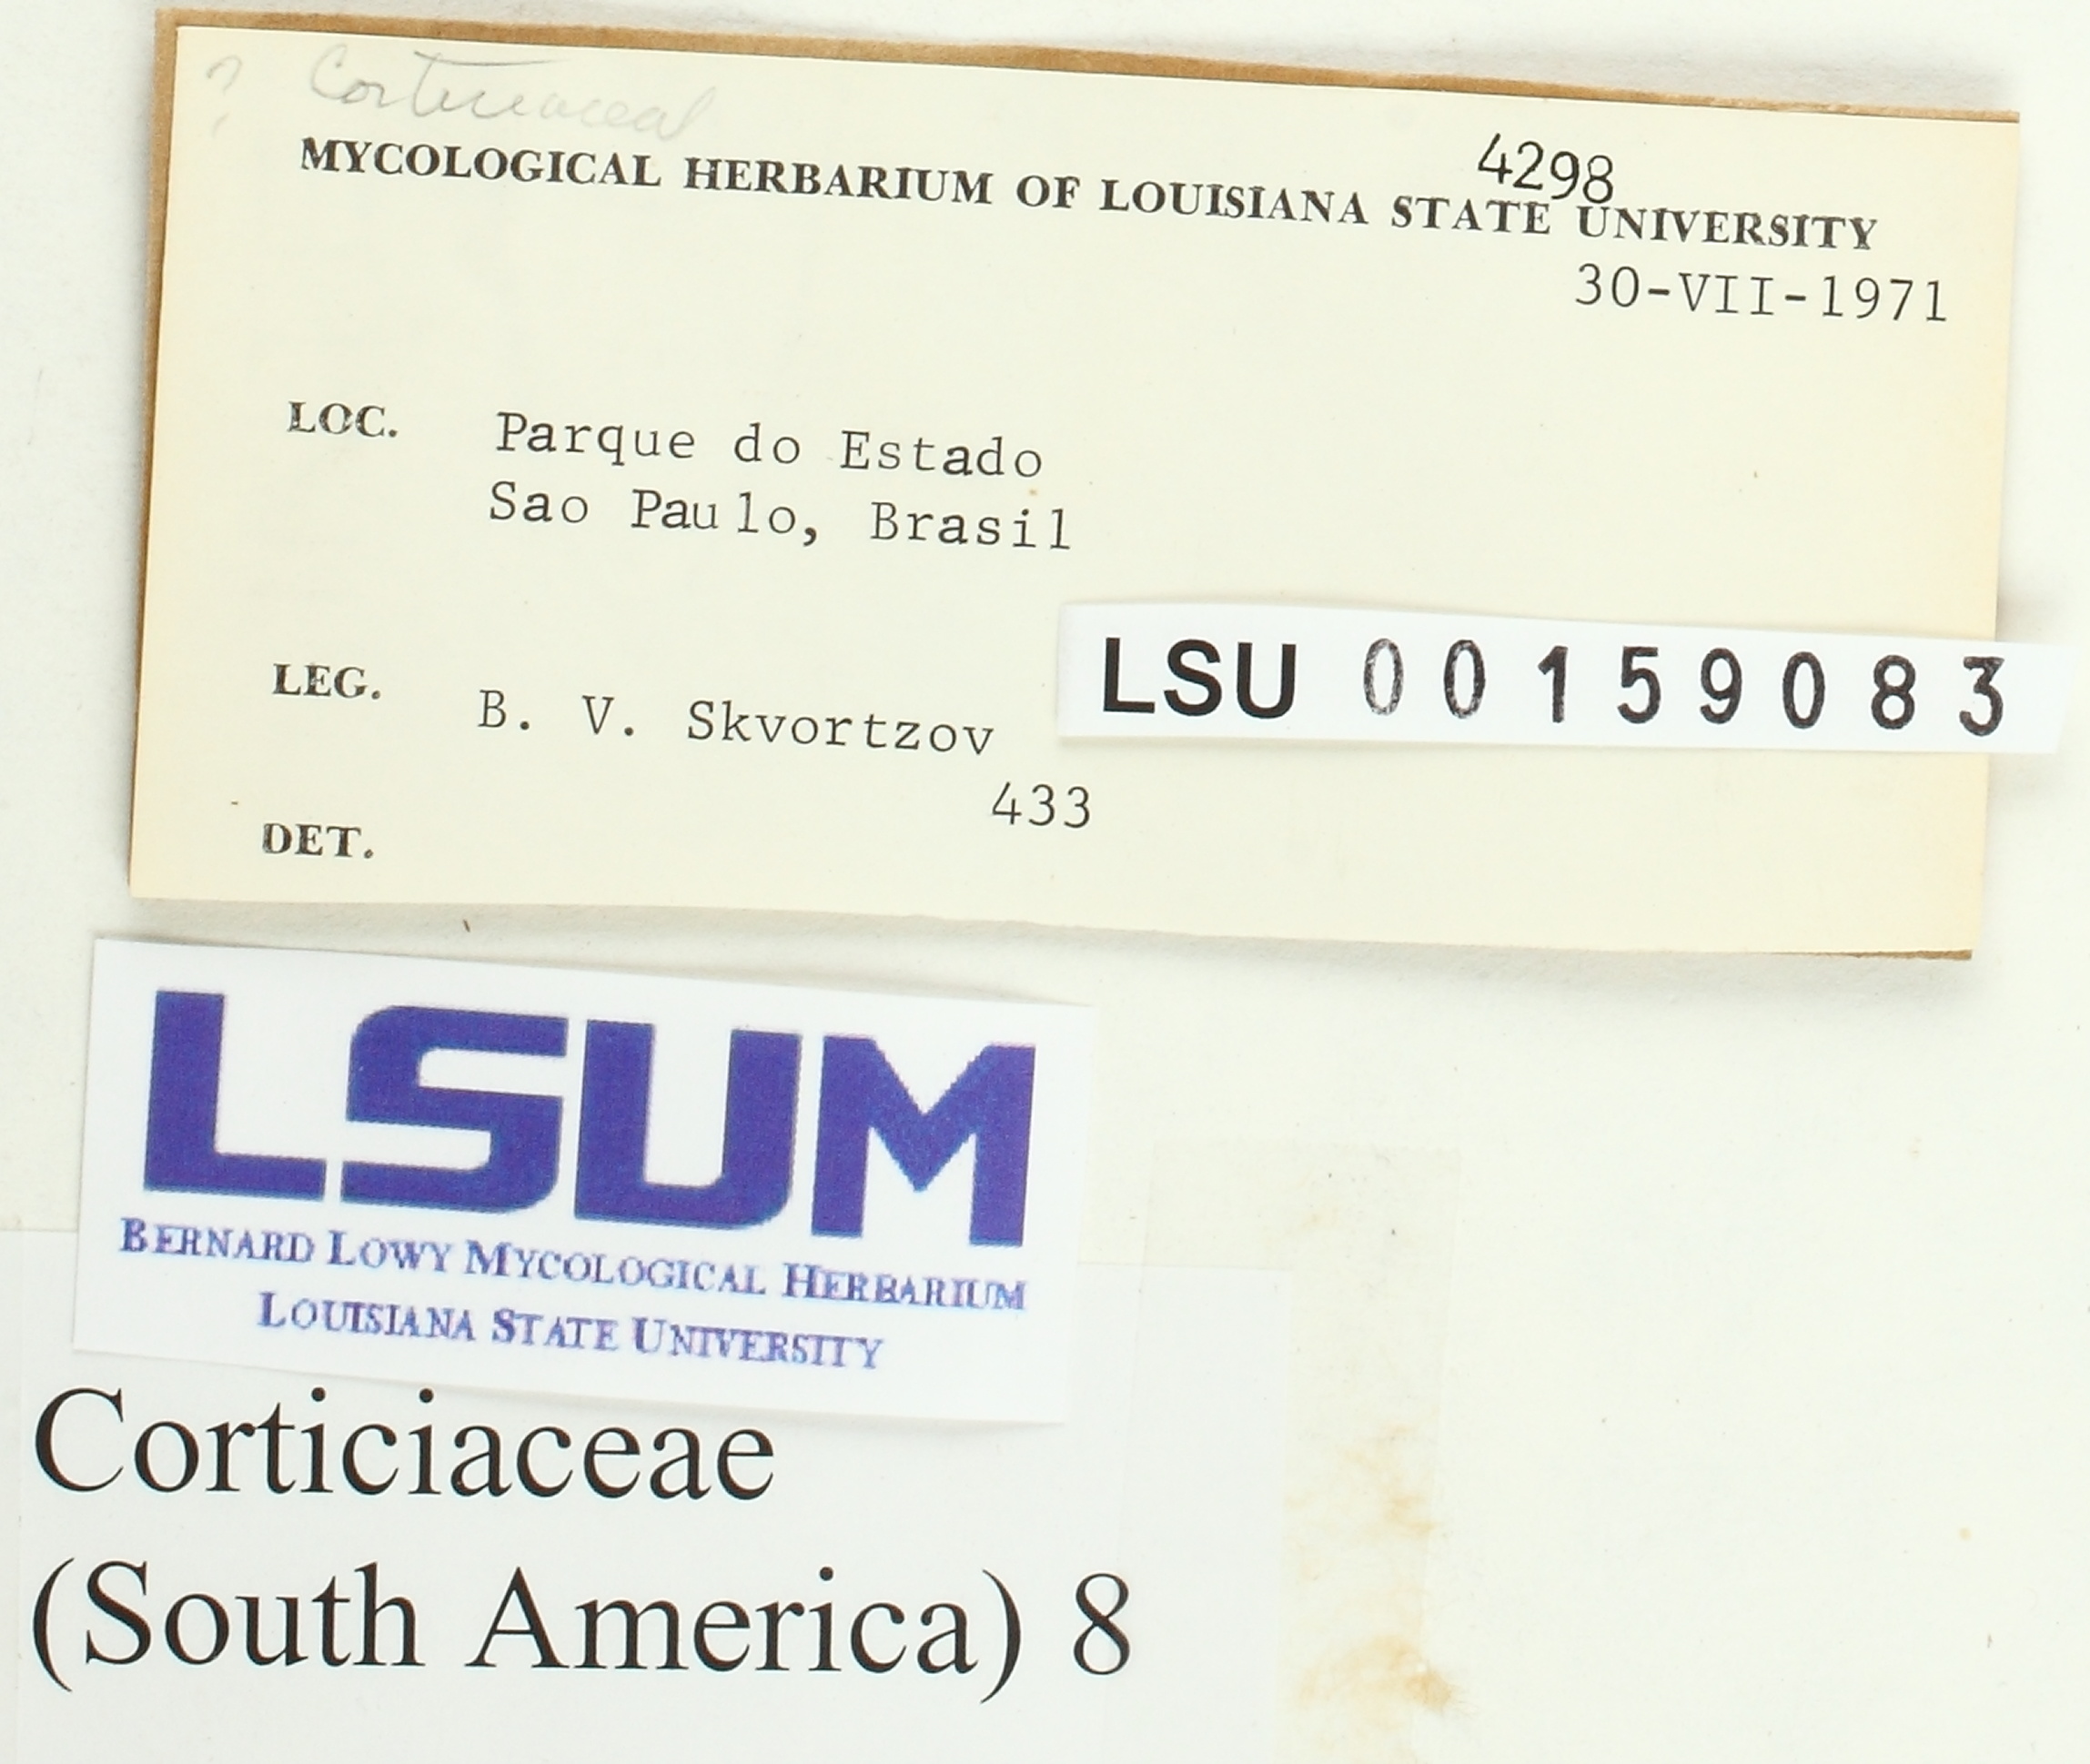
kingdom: Fungi
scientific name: Fungi
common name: Fungi
